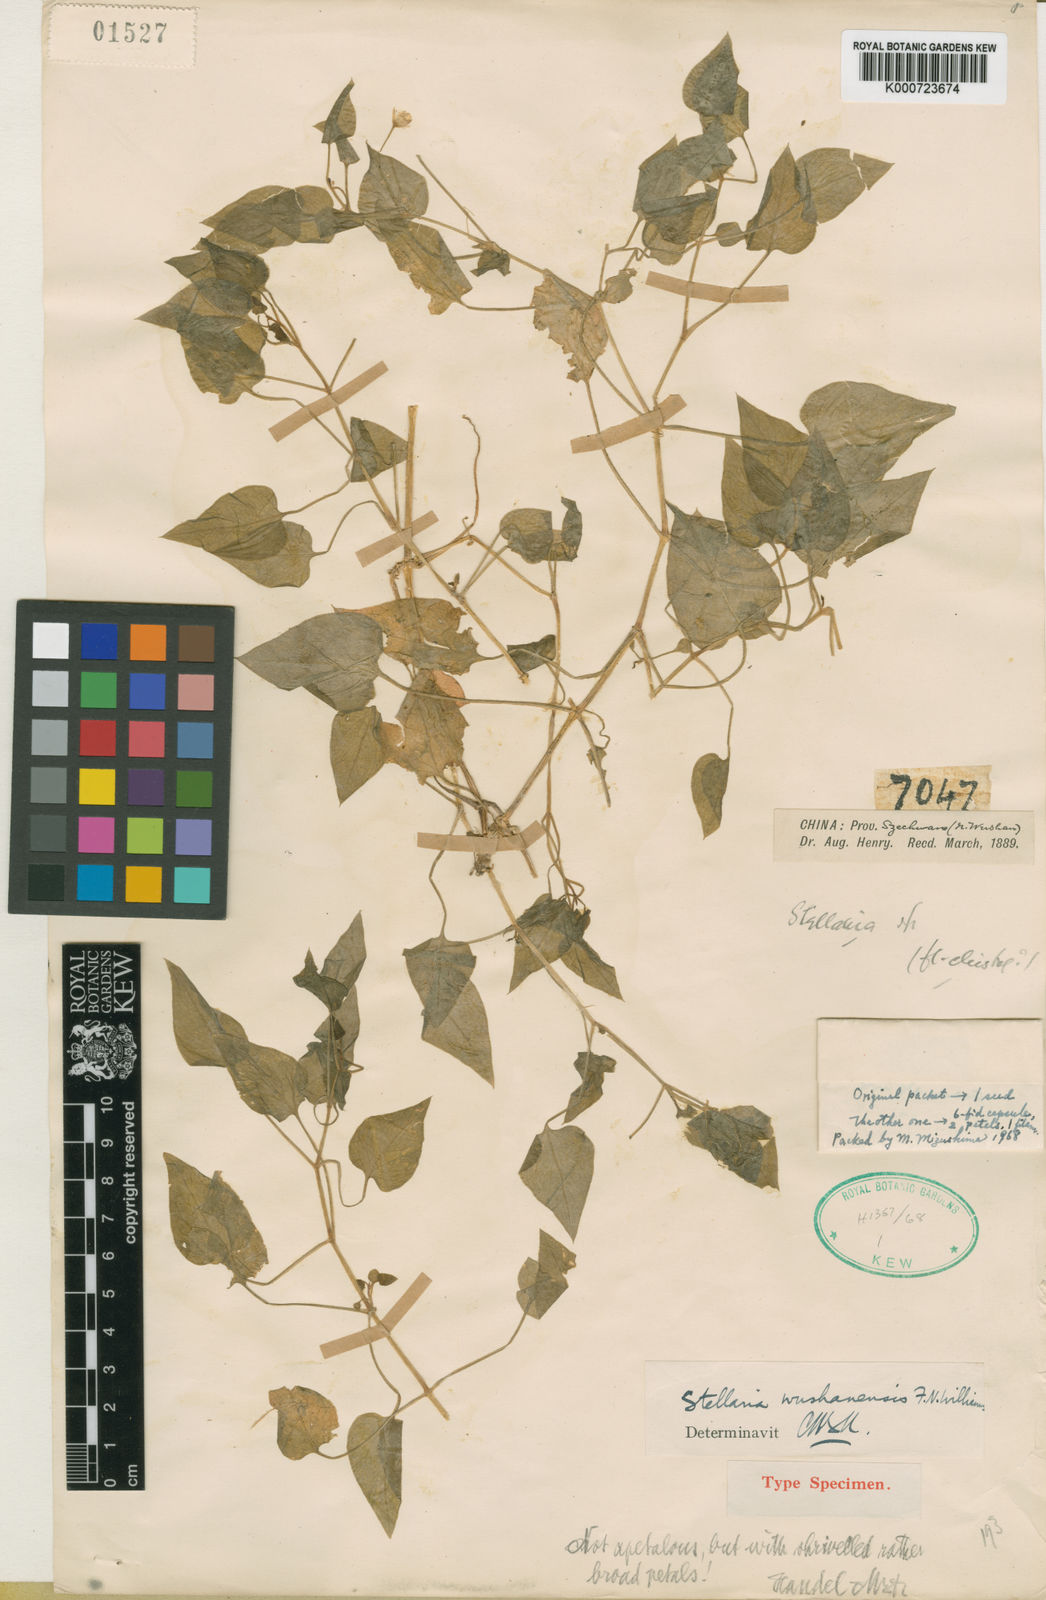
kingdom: Plantae
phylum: Tracheophyta
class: Magnoliopsida
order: Caryophyllales
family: Caryophyllaceae
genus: Nubelaria
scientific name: Nubelaria wushanensis
